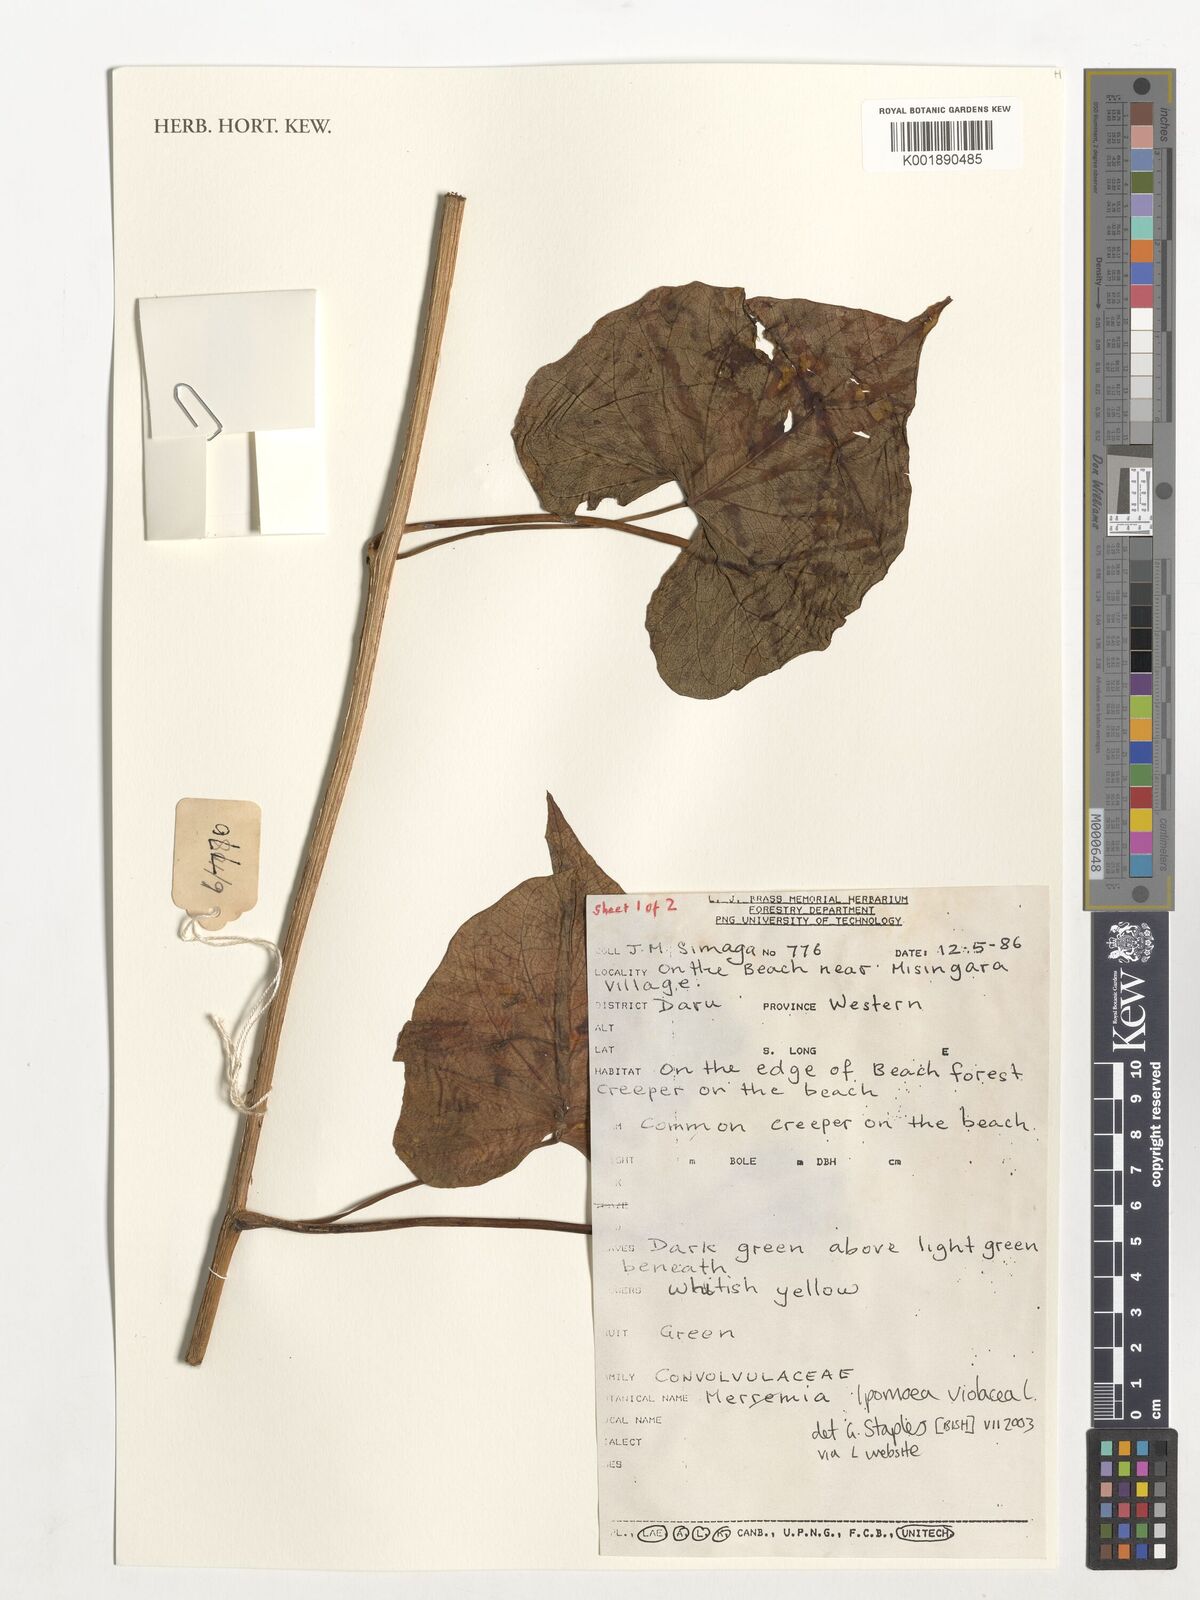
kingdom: Plantae
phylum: Tracheophyta
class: Magnoliopsida
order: Solanales
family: Convolvulaceae
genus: Ipomoea
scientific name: Ipomoea violacea
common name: Beach moonflower
